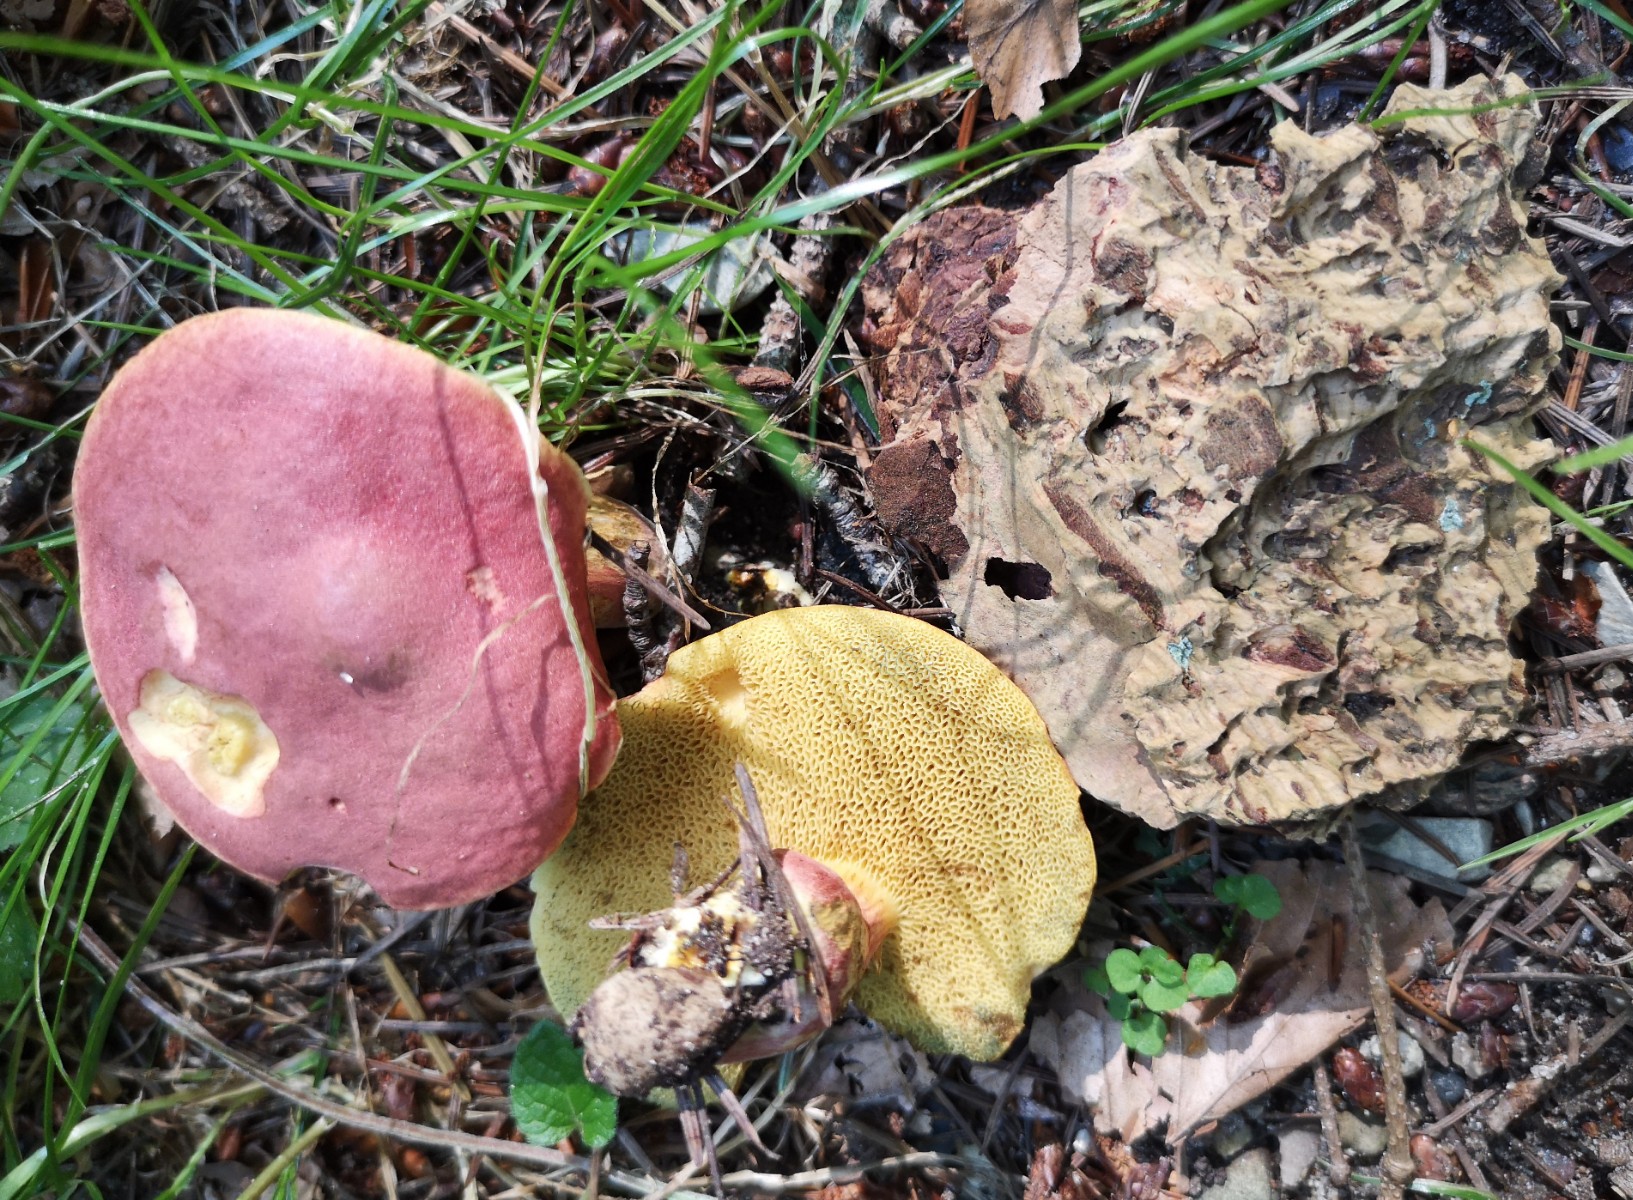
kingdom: Fungi
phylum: Basidiomycota
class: Agaricomycetes
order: Boletales
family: Boletaceae
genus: Hortiboletus
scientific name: Hortiboletus rubellus
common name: blodrød rørhat
